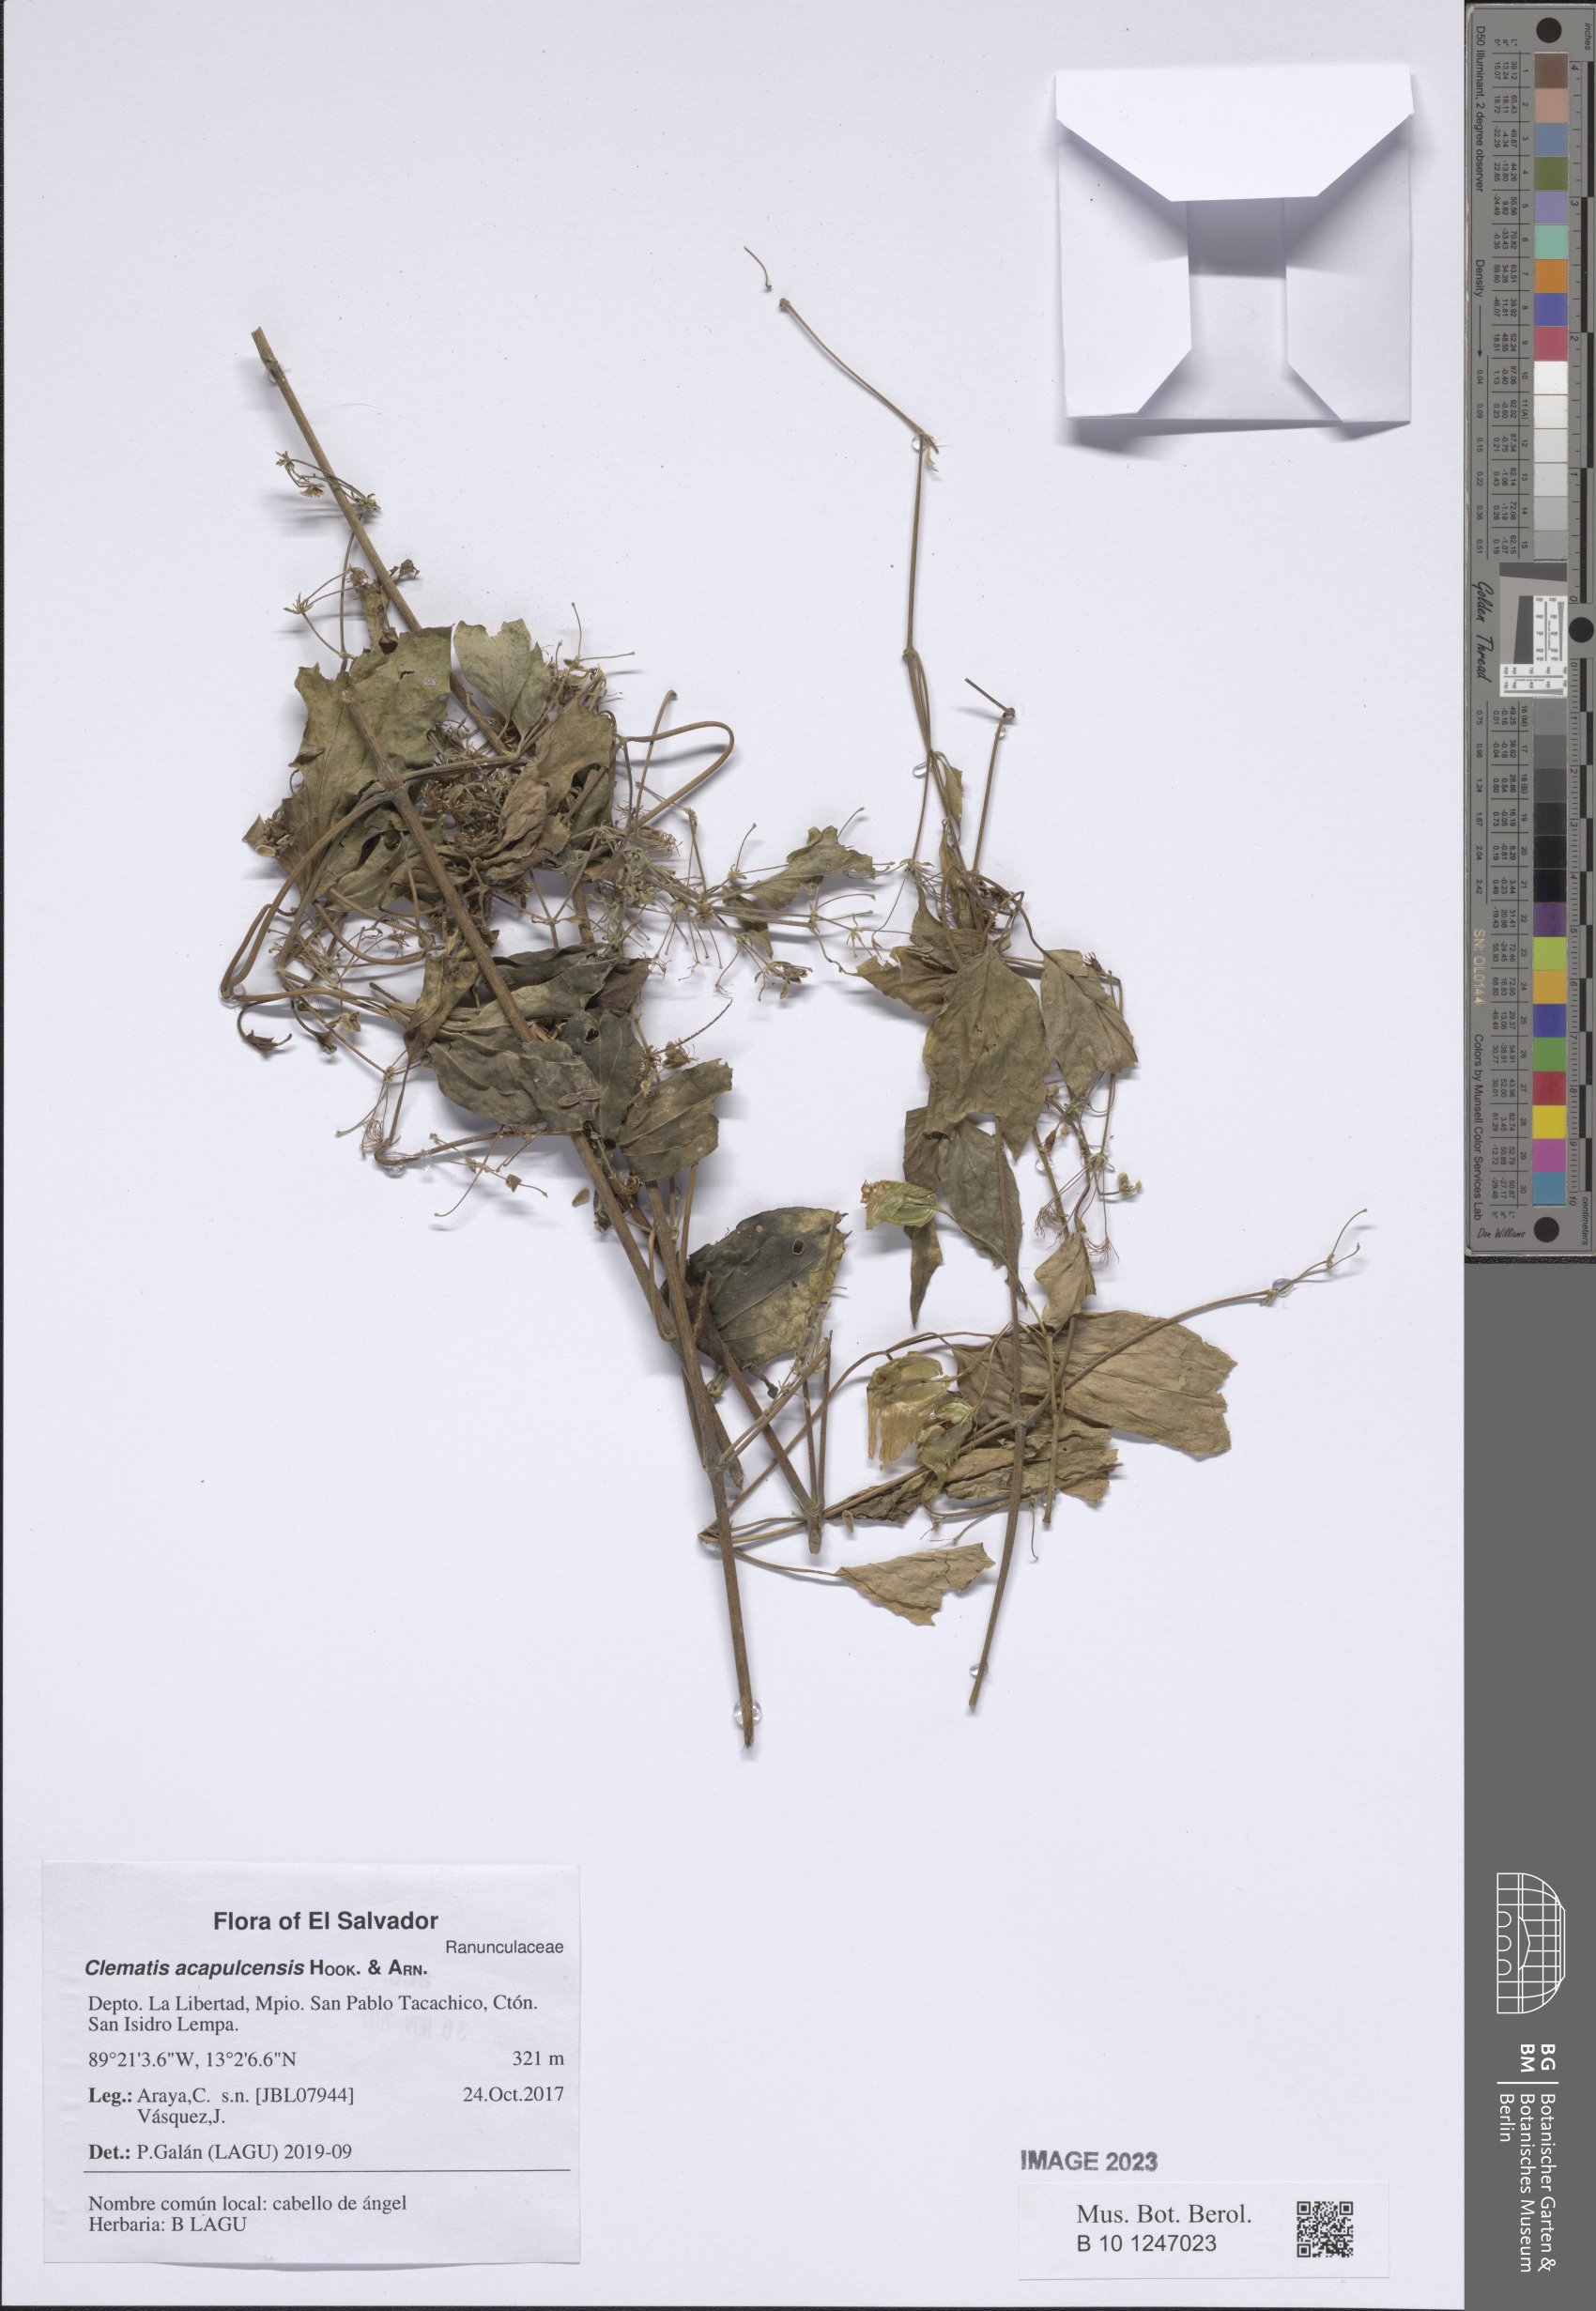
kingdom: Plantae
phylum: Tracheophyta
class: Magnoliopsida
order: Ranunculales
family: Ranunculaceae
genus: Clematis
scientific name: Clematis acapulcensis
